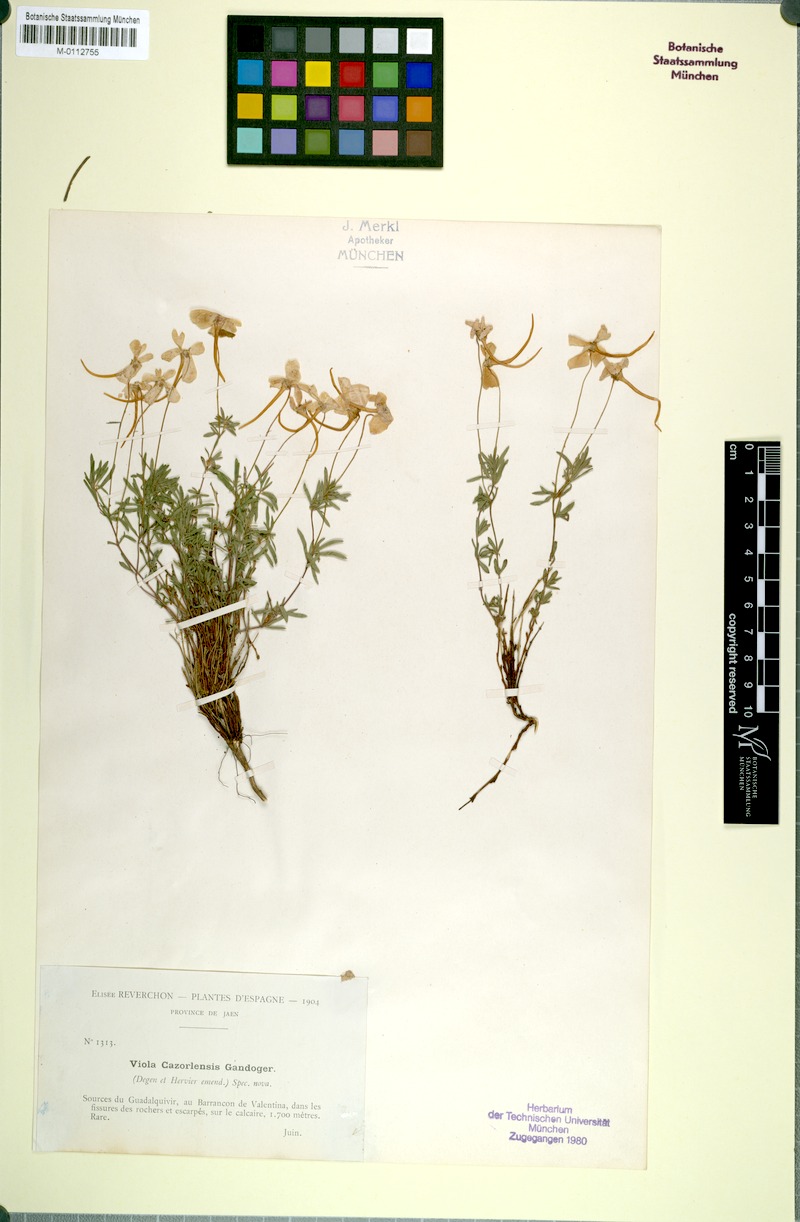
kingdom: Plantae
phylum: Tracheophyta
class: Magnoliopsida
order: Malpighiales
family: Violaceae
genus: Viola
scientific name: Viola cazorlensis
